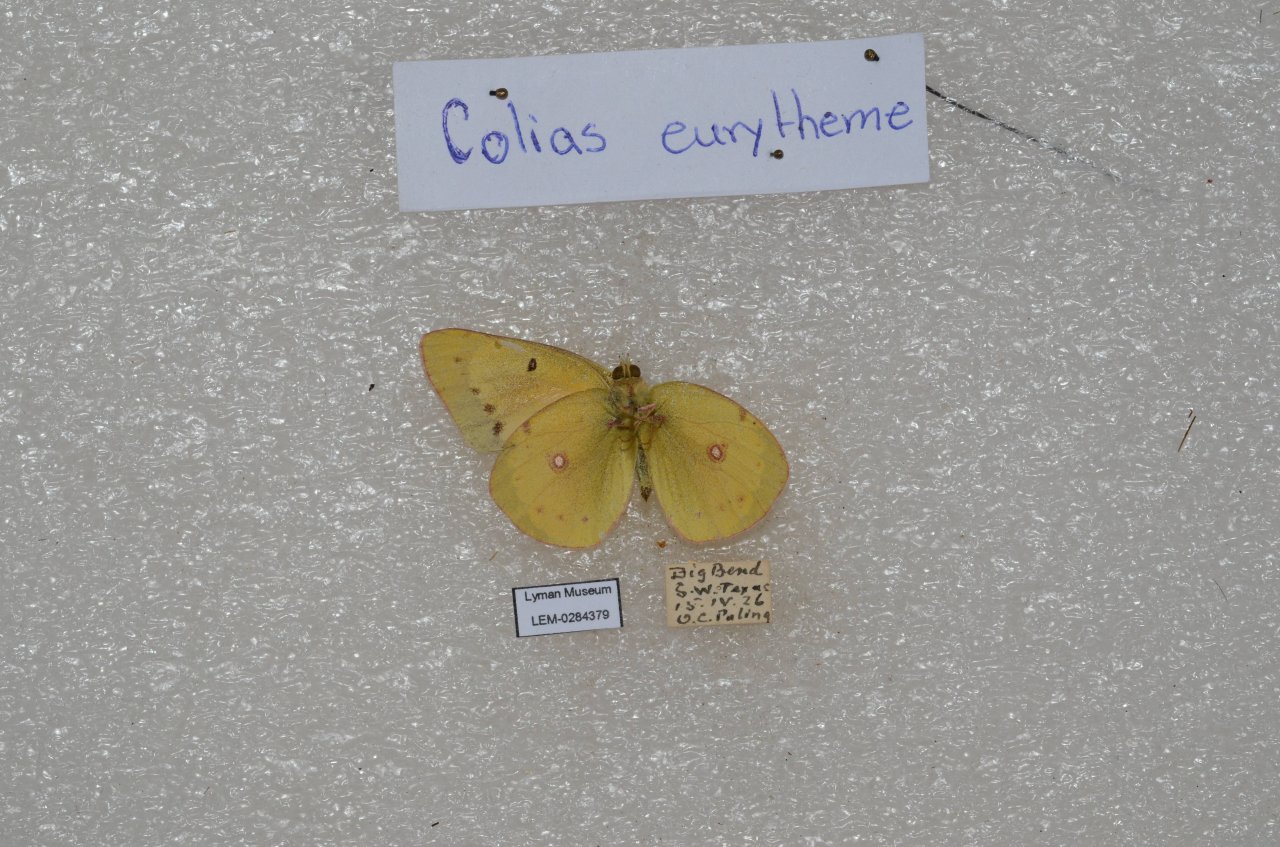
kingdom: Animalia
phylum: Arthropoda
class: Insecta
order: Lepidoptera
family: Pieridae
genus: Colias
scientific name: Colias eurytheme
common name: Orange Sulphur
